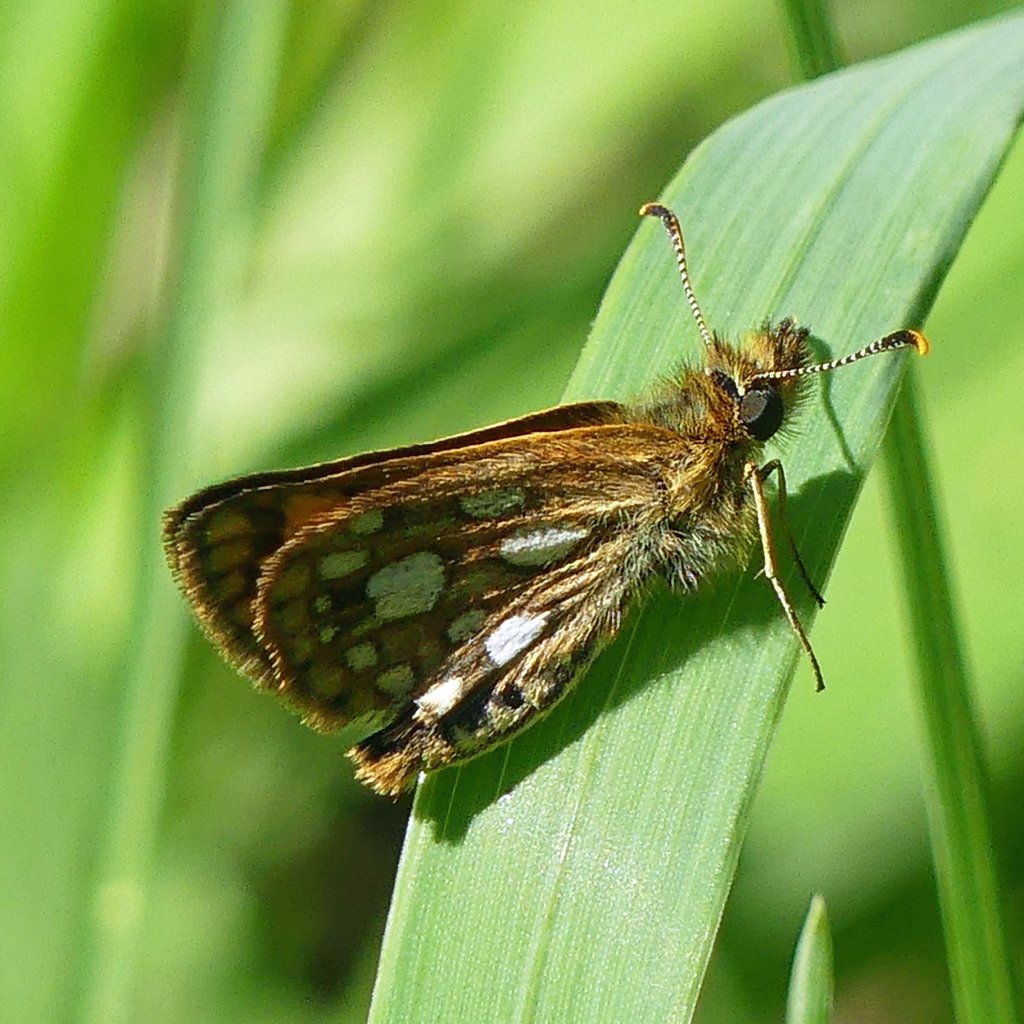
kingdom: Animalia
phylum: Arthropoda
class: Insecta
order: Lepidoptera
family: Hesperiidae
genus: Carterocephalus
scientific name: Carterocephalus palaemon
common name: Chequered Skipper
